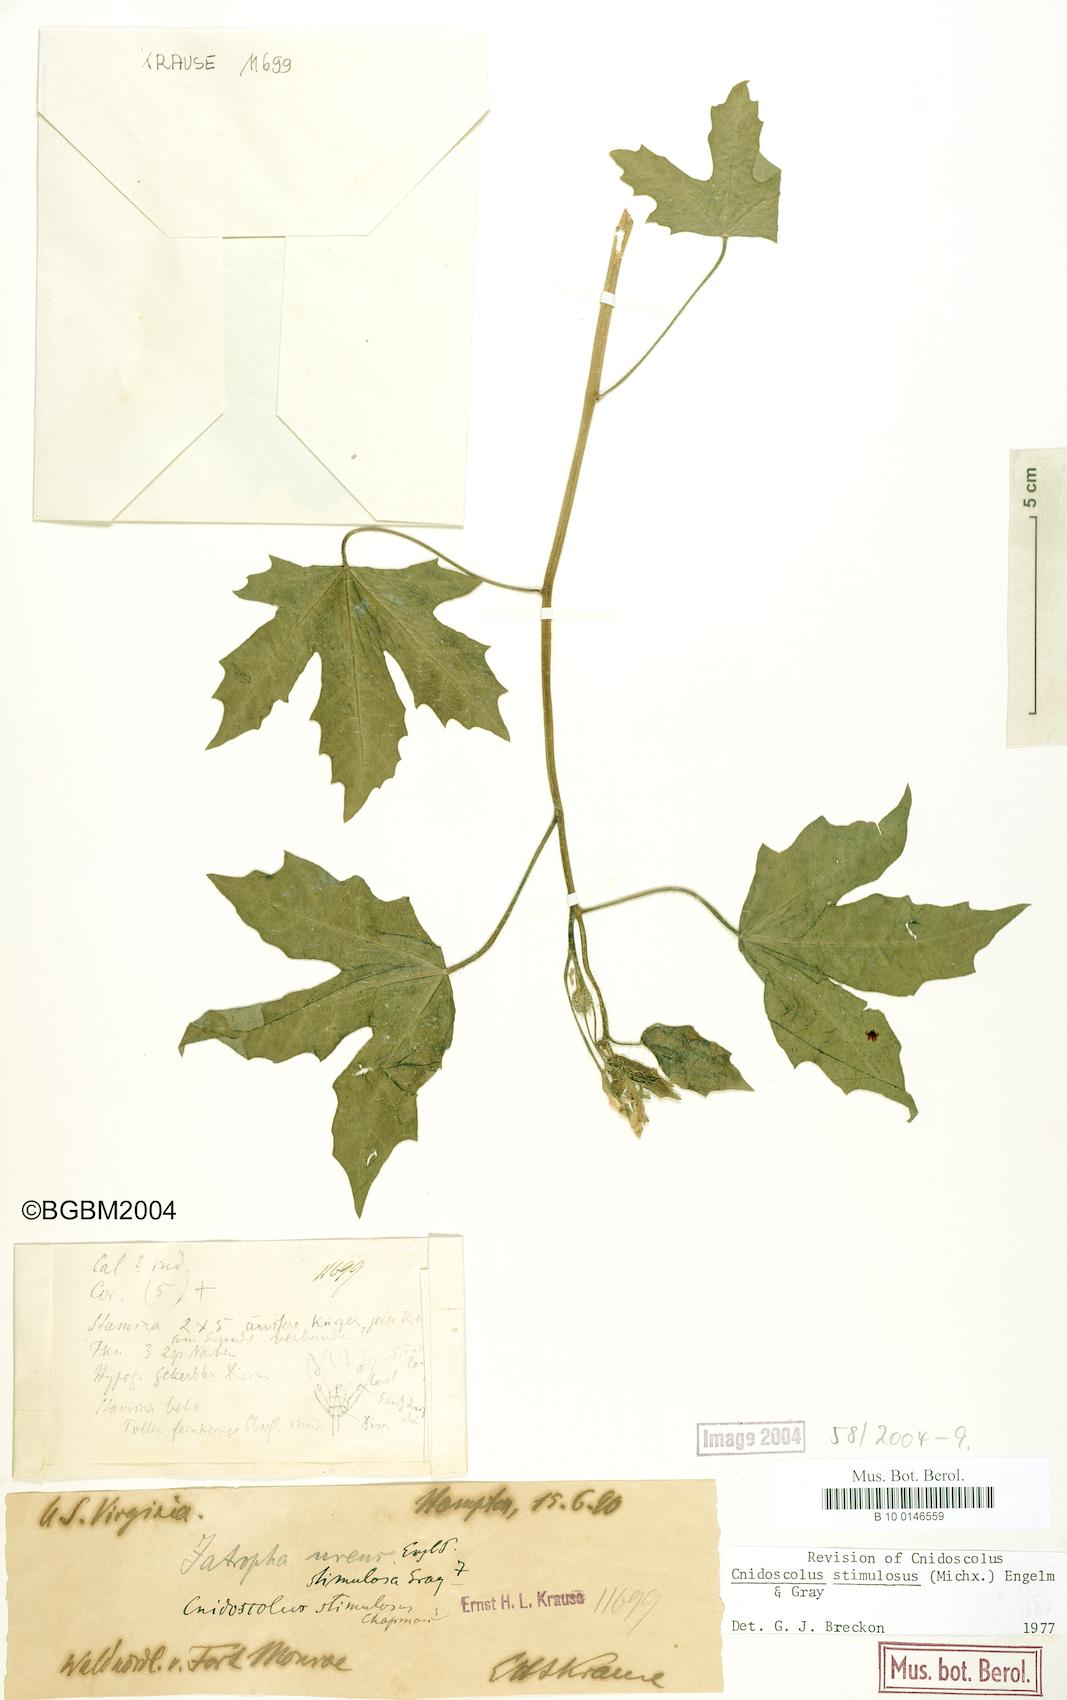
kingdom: Plantae
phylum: Tracheophyta
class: Magnoliopsida
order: Malpighiales
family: Euphorbiaceae
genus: Cnidoscolus
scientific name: Cnidoscolus stimulosus
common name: Bull-nettle
